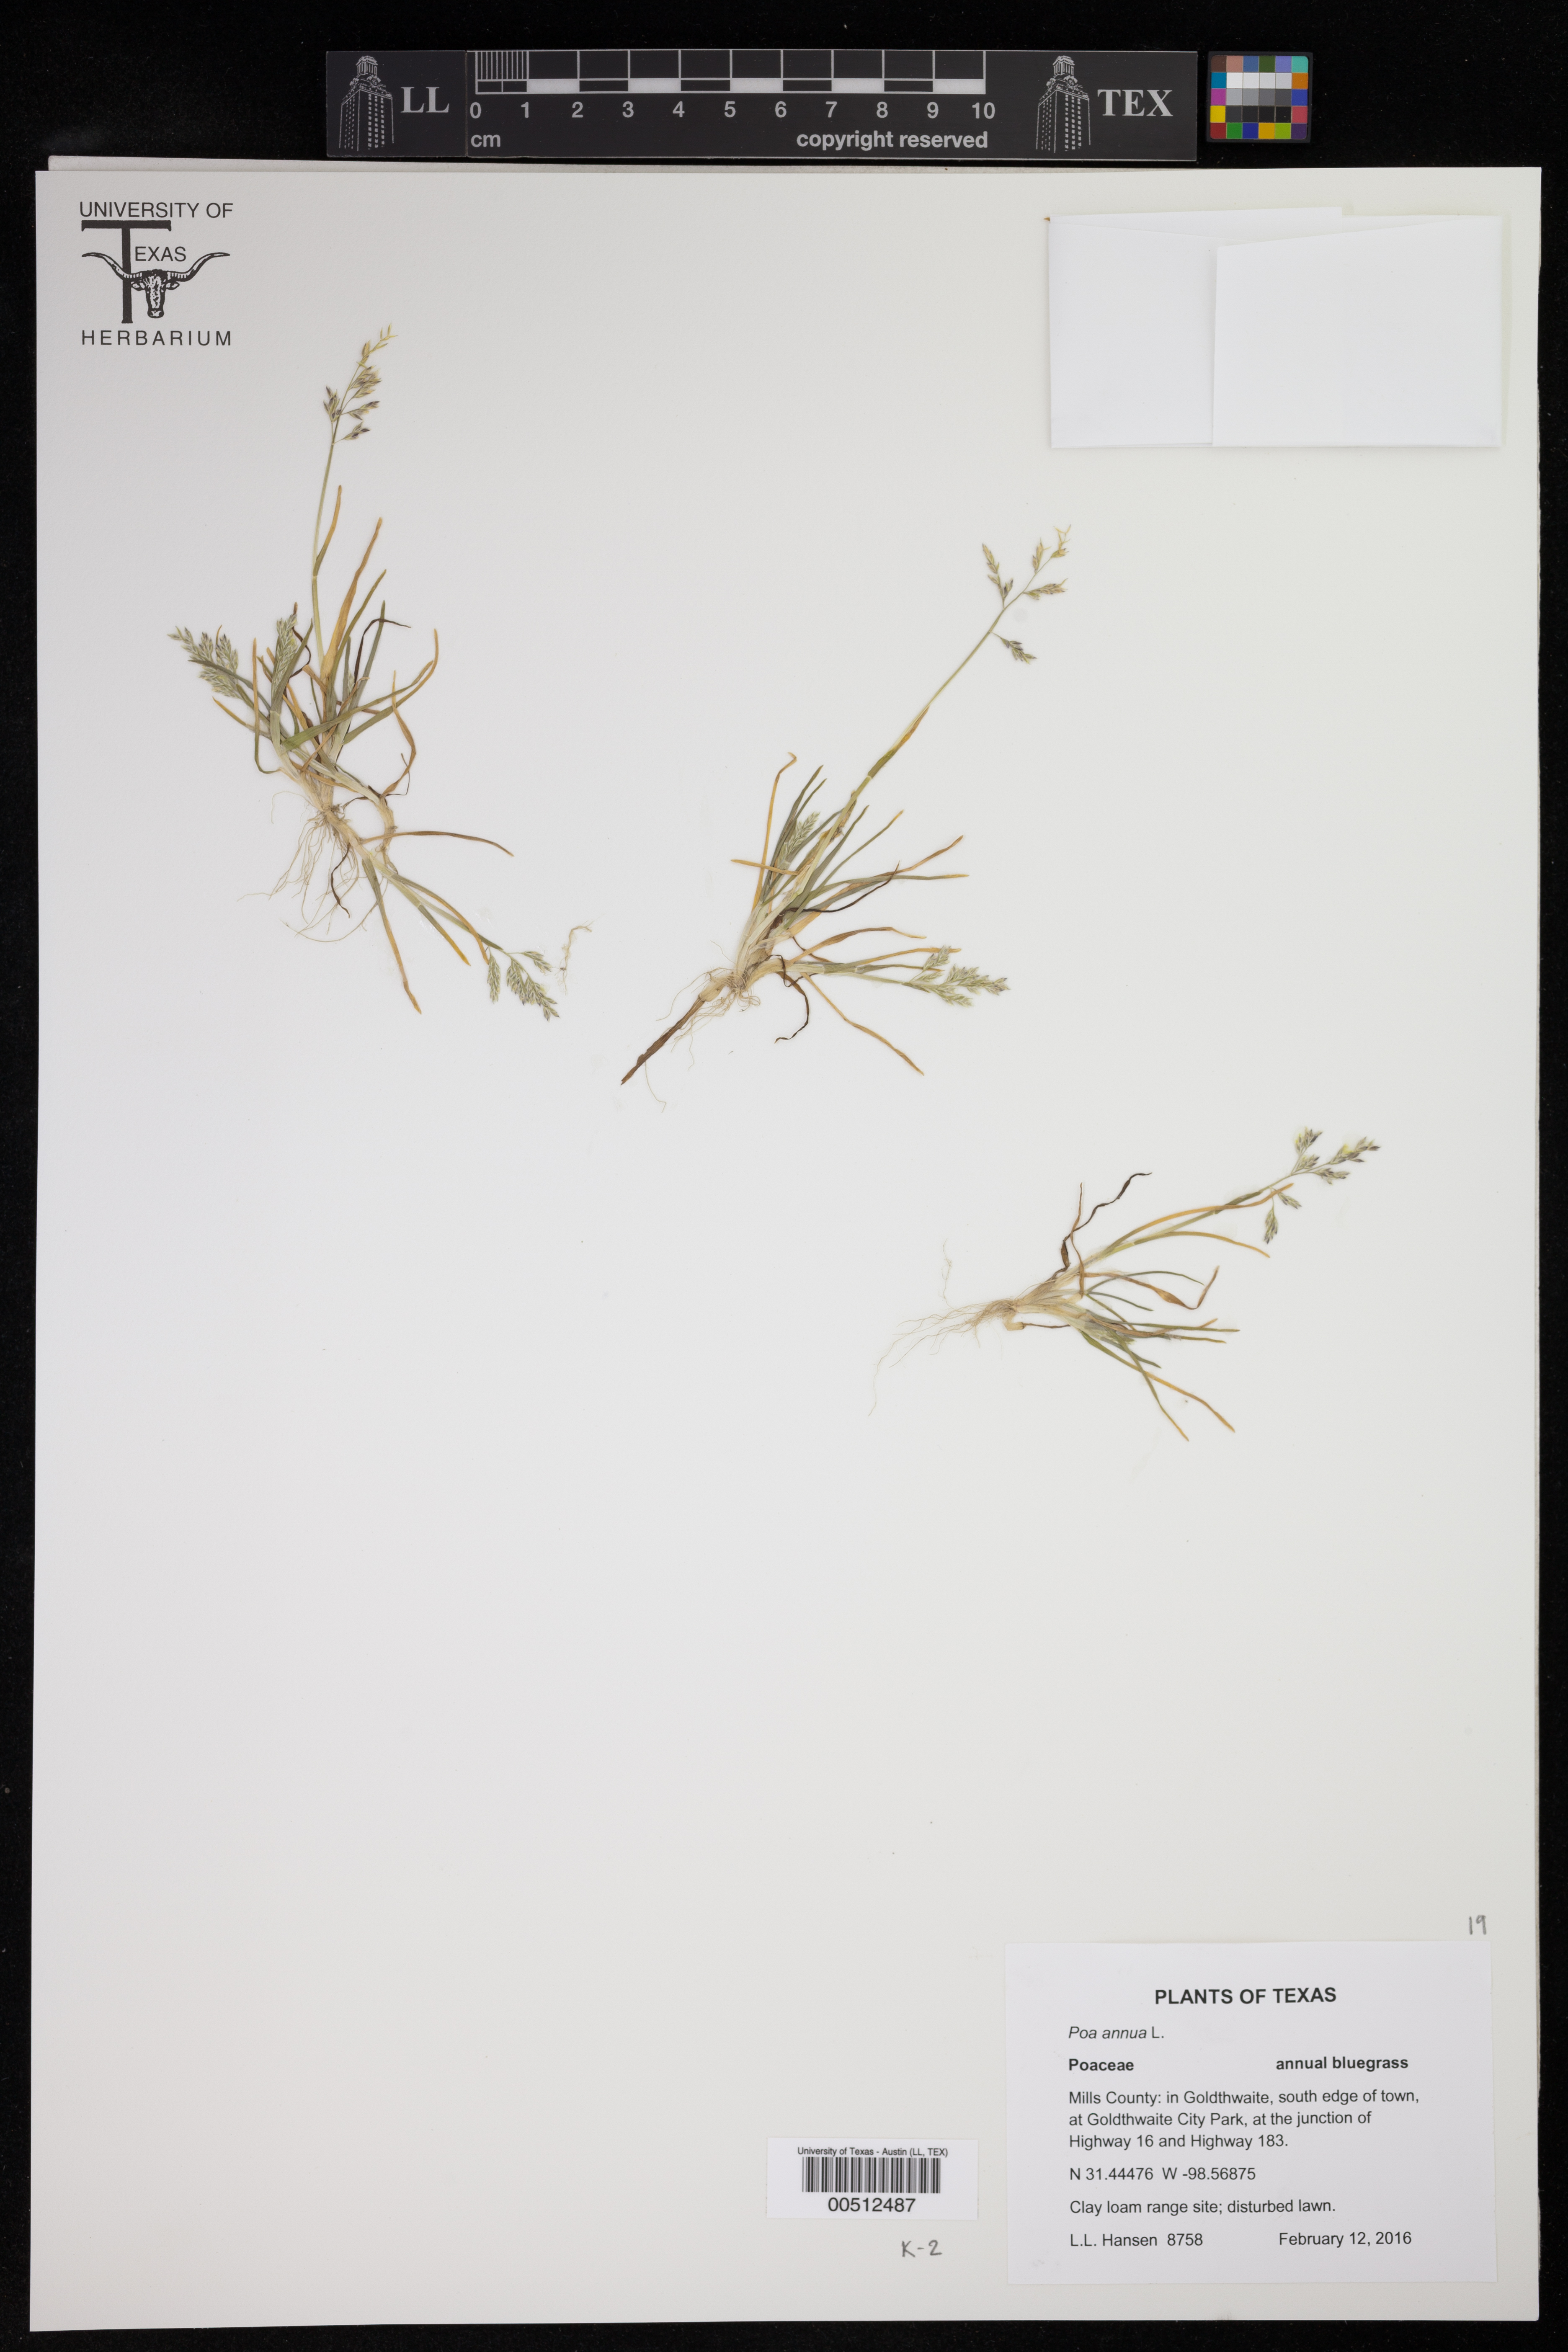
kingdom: Plantae
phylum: Tracheophyta
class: Liliopsida
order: Poales
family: Poaceae
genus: Poa
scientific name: Poa annua
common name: Annual bluegrass
